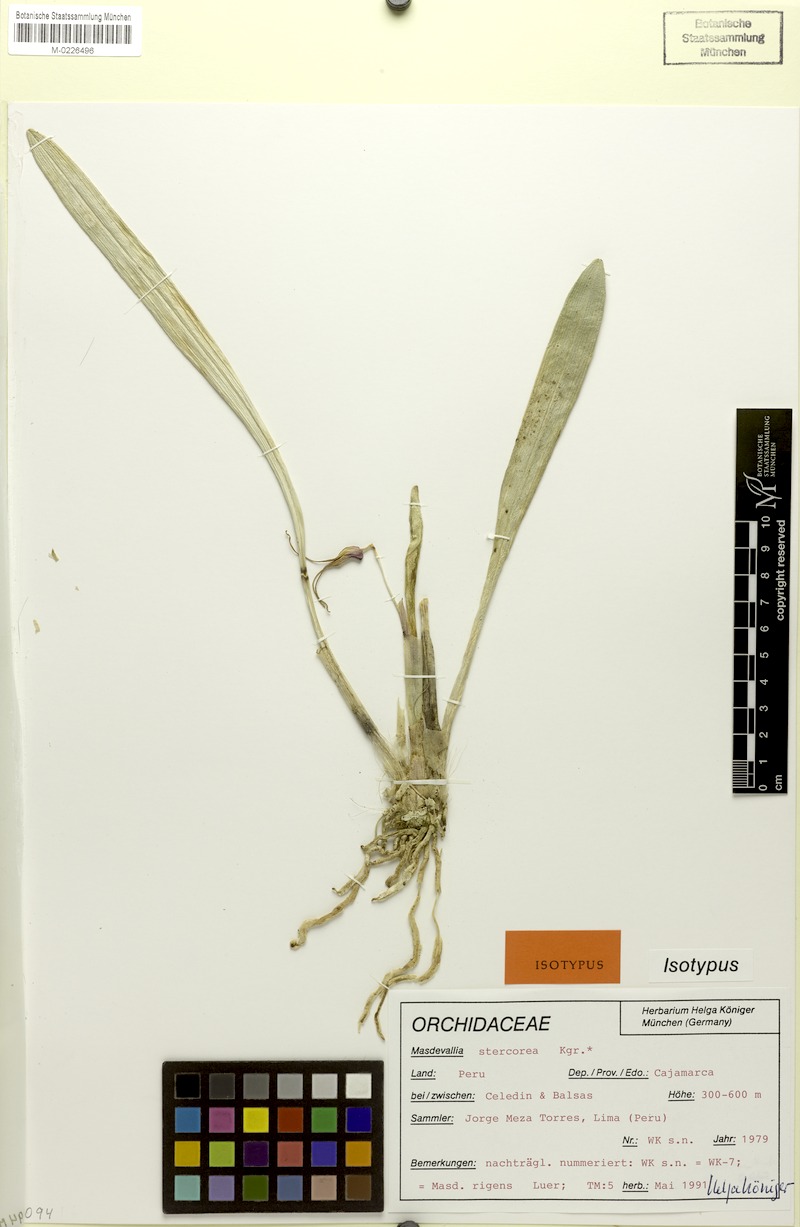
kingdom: Plantae
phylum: Tracheophyta
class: Liliopsida
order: Asparagales
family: Orchidaceae
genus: Masdevallia
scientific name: Masdevallia rigens
